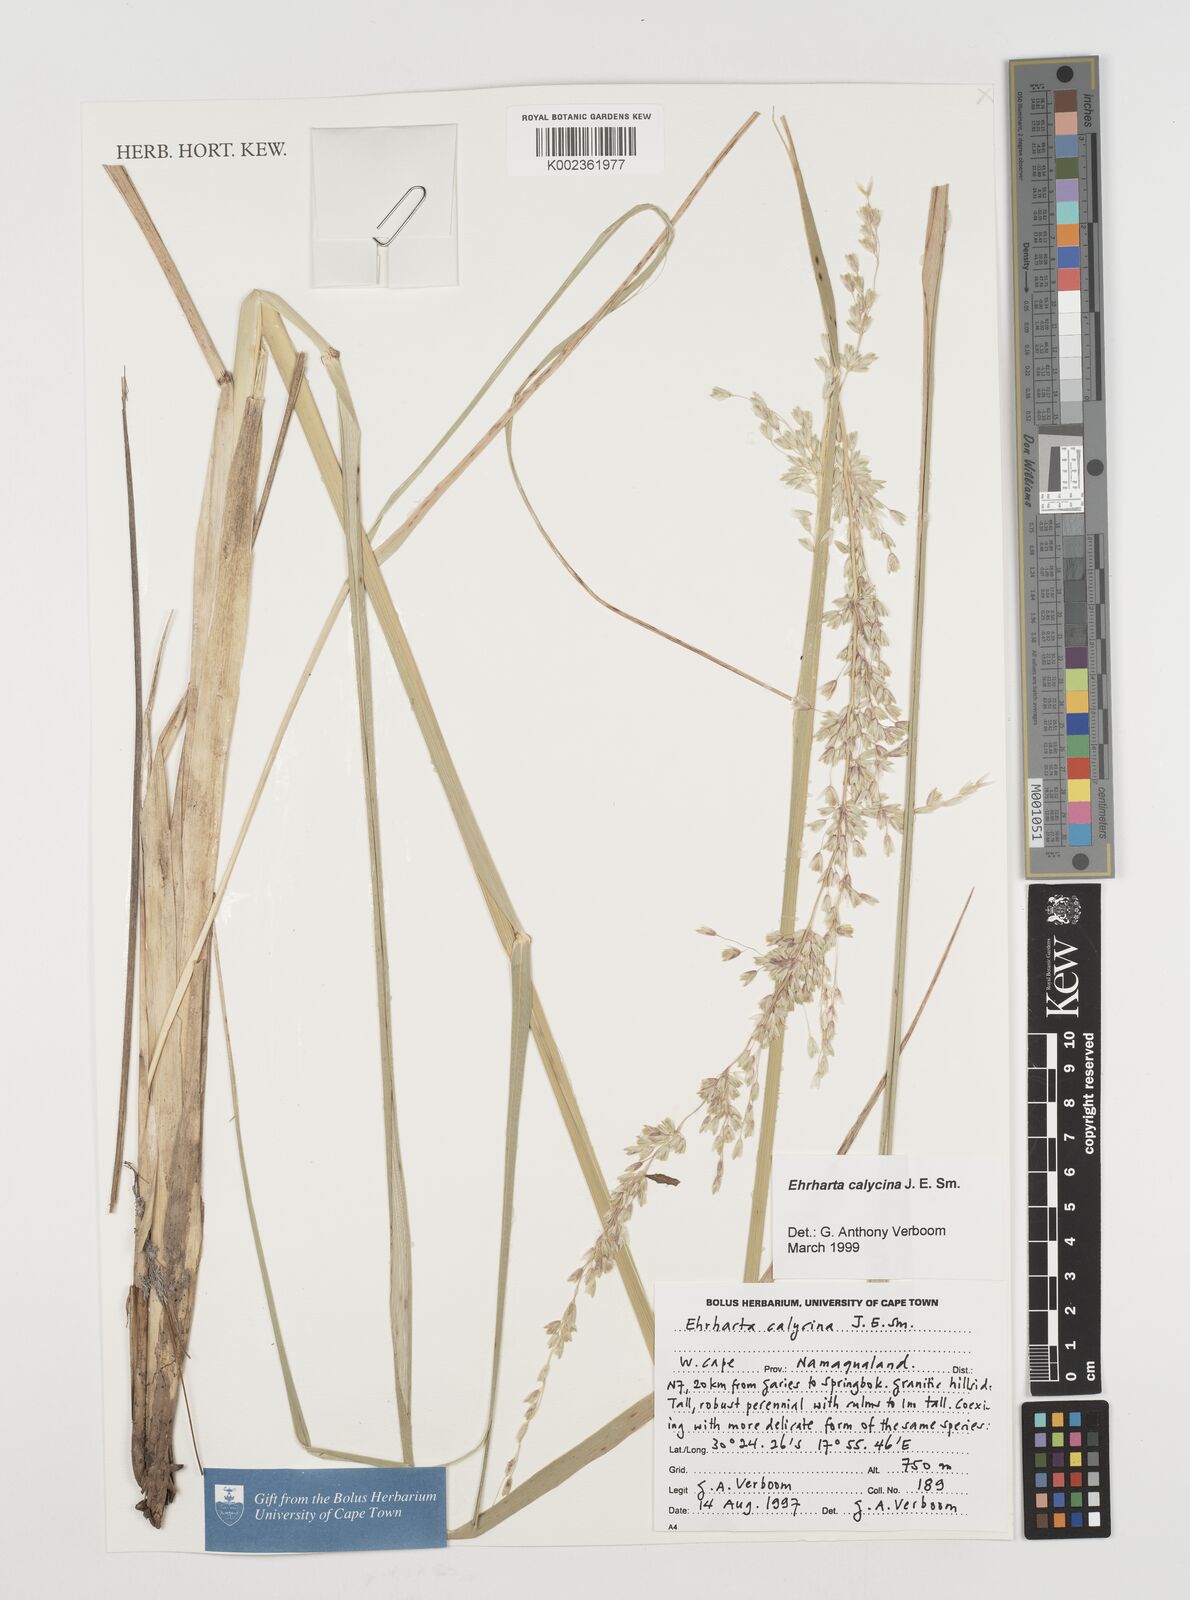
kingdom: Plantae
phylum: Tracheophyta
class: Liliopsida
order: Poales
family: Poaceae
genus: Ehrharta
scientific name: Ehrharta calycina
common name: Perennial veldtgrass
